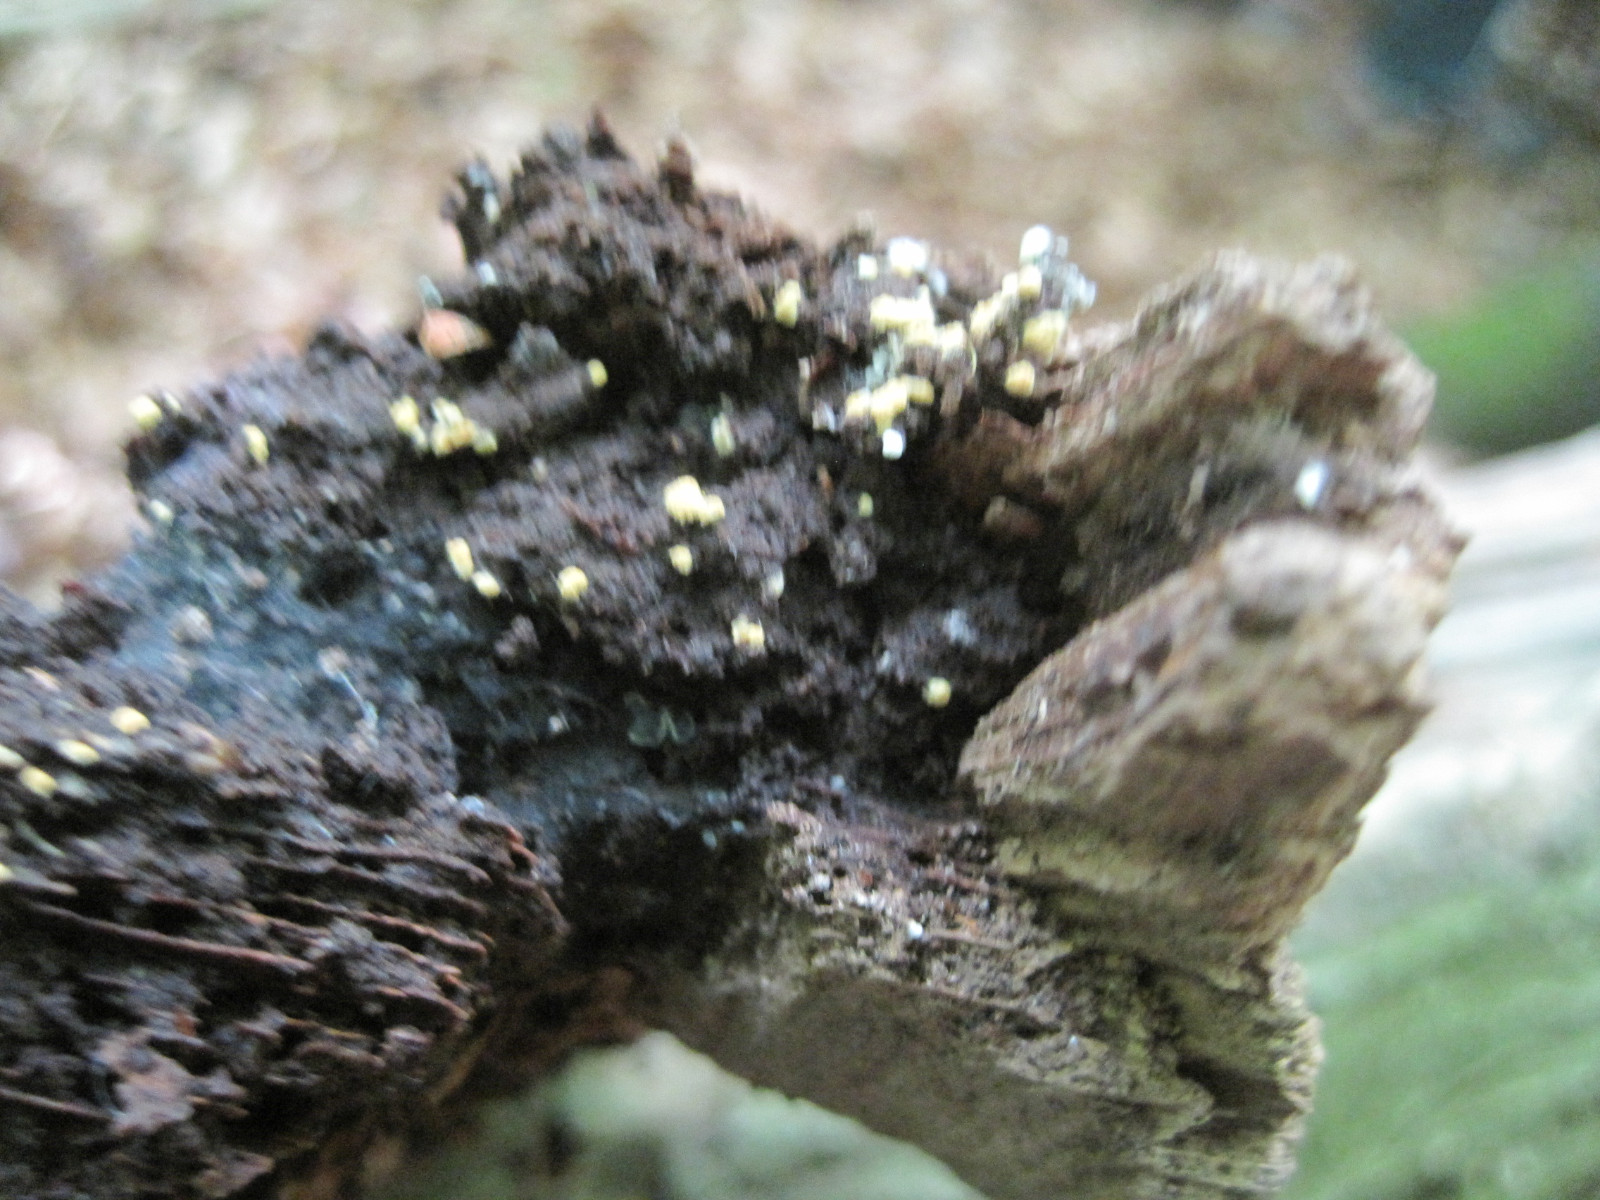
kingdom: Fungi
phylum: Basidiomycota
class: Agaricomycetes
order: Cantharellales
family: Botryobasidiaceae
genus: Botryobasidium
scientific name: Botryobasidium aureum
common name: gylden spindhinde
